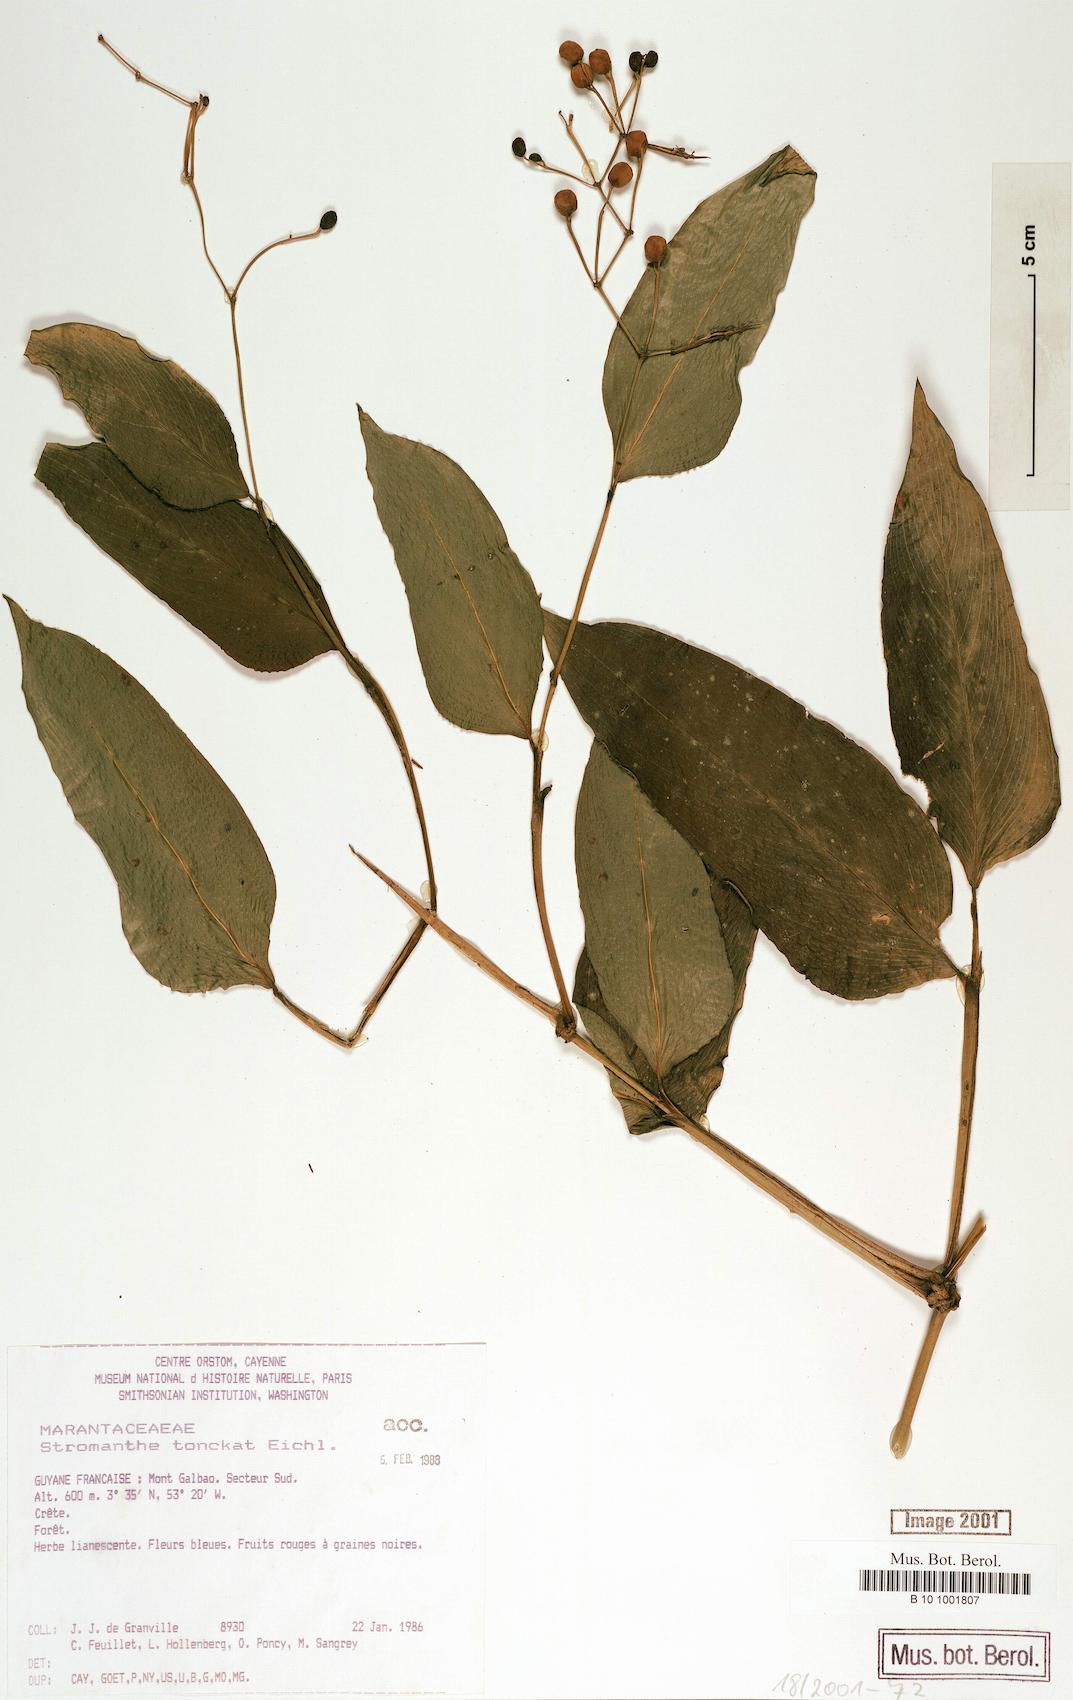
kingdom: Plantae
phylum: Tracheophyta
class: Liliopsida
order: Zingiberales
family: Marantaceae
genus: Stromanthe
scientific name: Stromanthe tonckat
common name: Stromanthe
